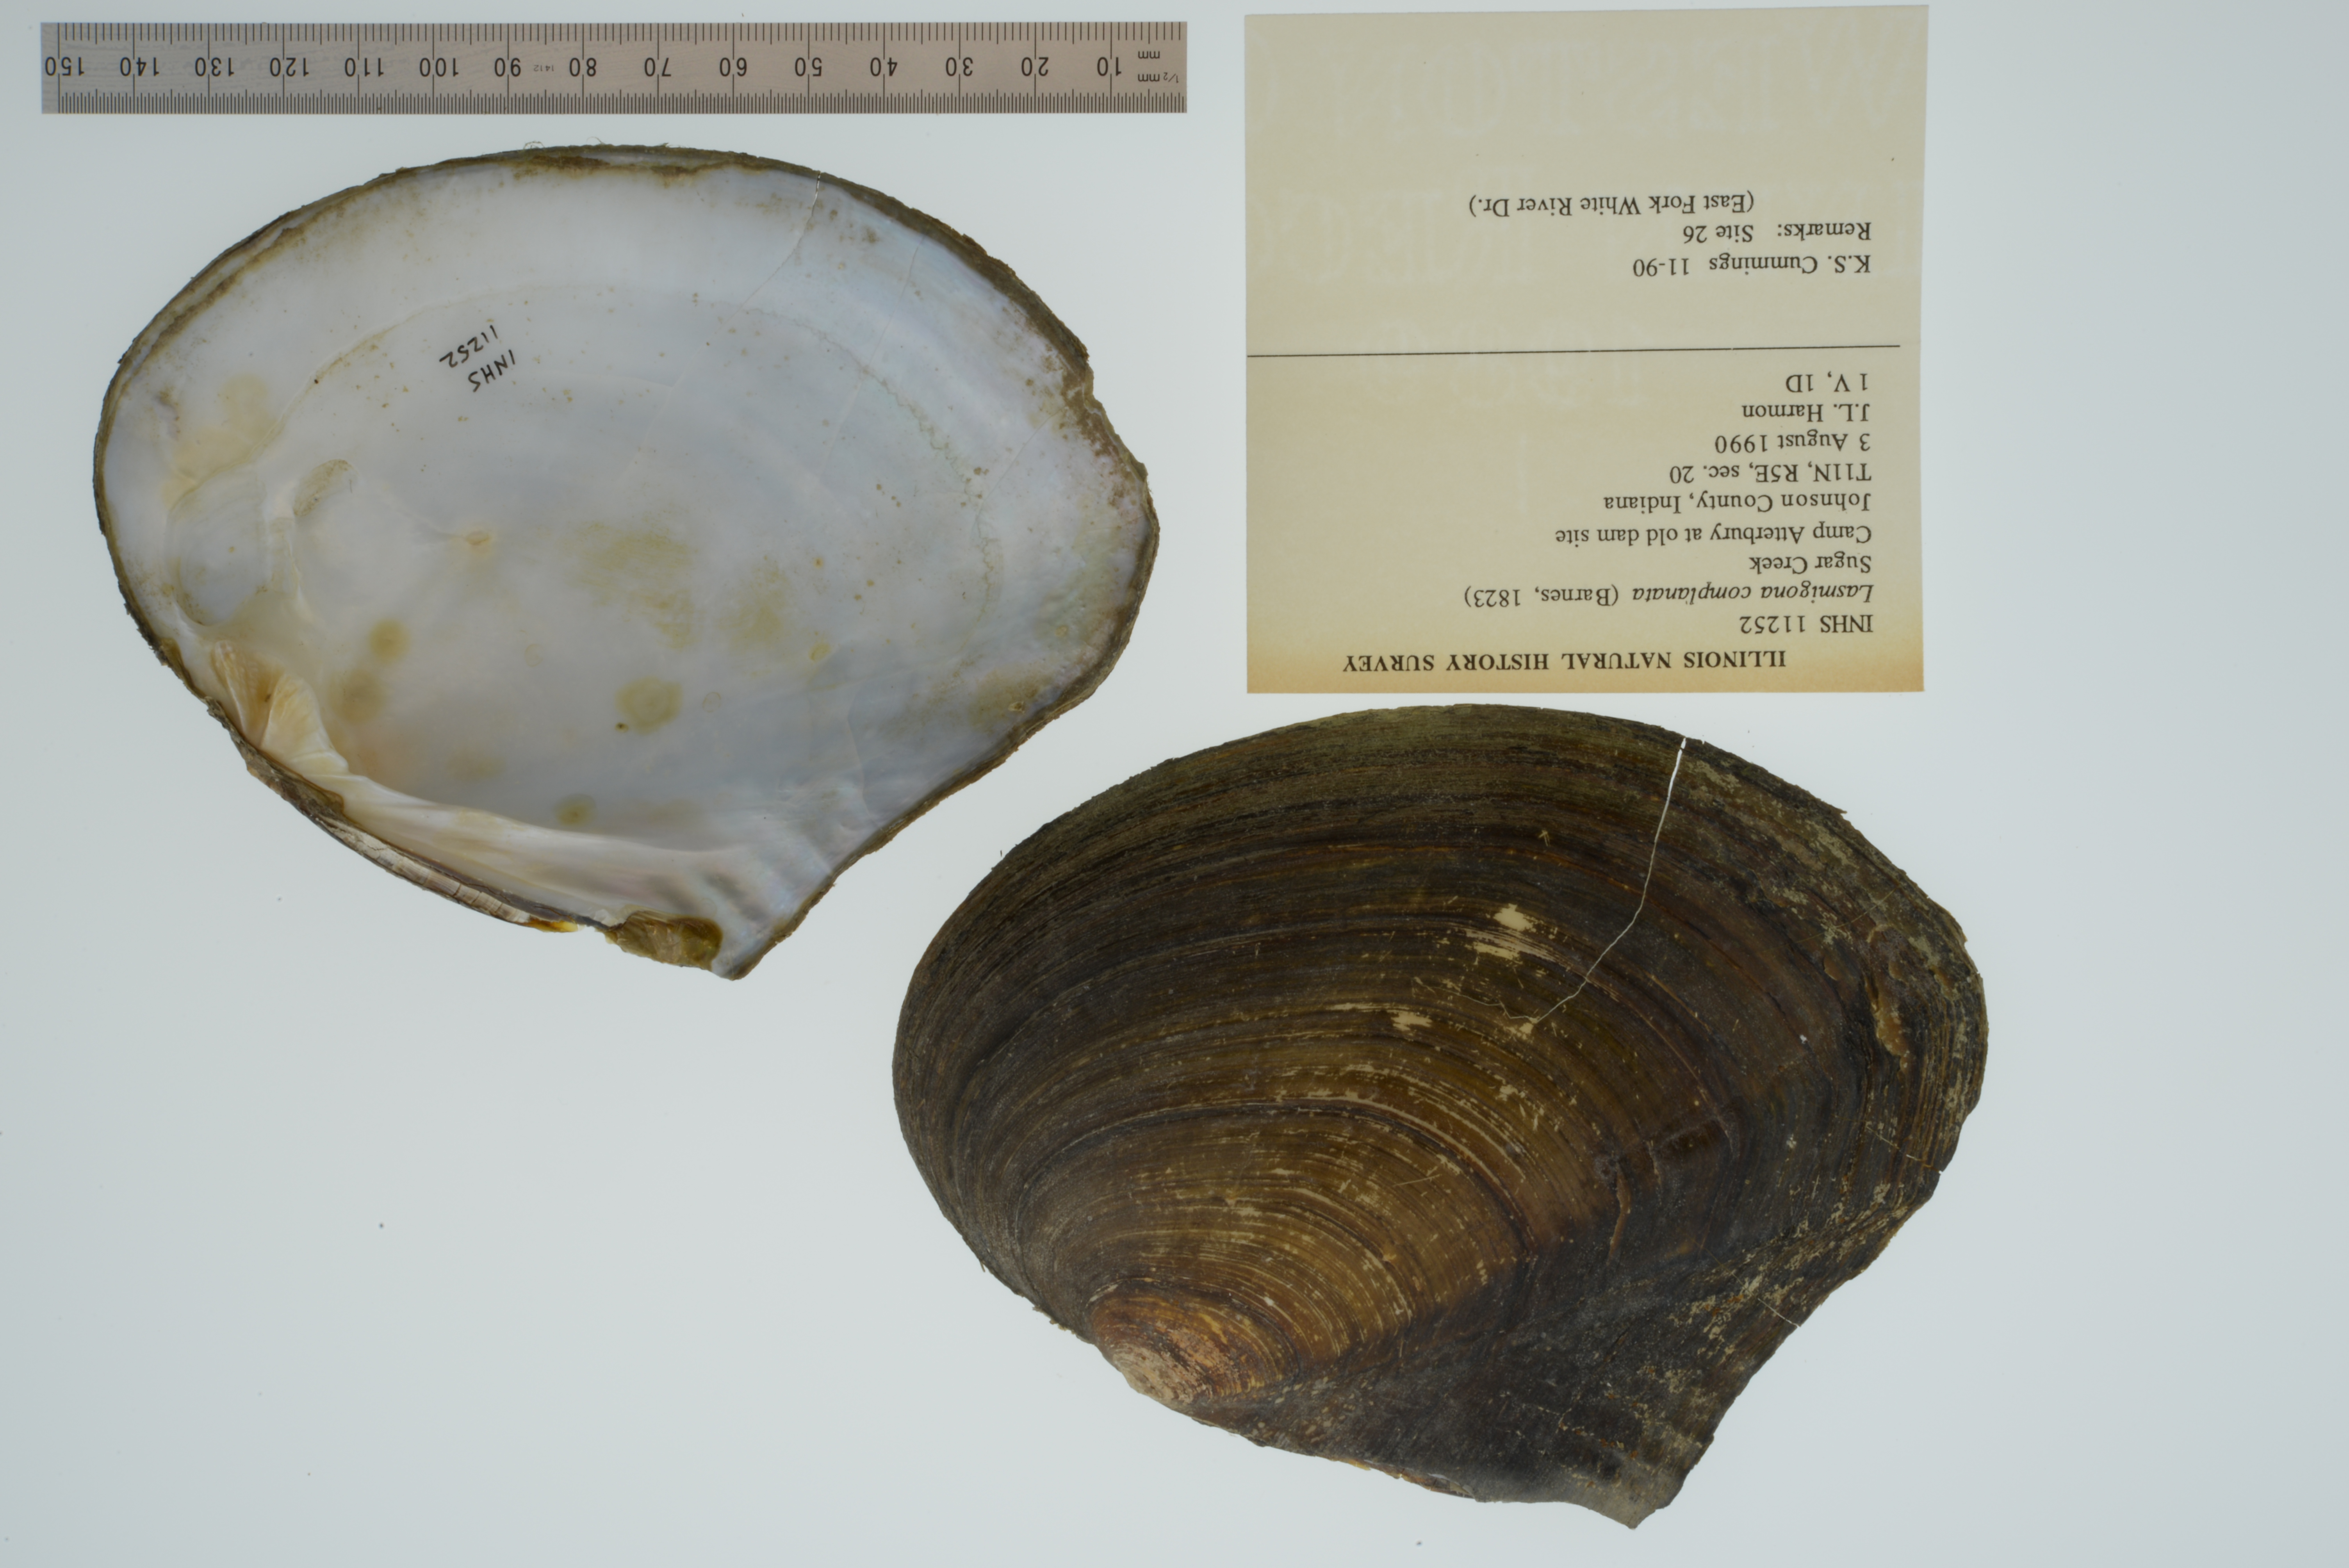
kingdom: Animalia
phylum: Mollusca
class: Bivalvia
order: Unionida
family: Unionidae
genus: Lasmigona
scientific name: Lasmigona complanata
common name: White heelsplitter
